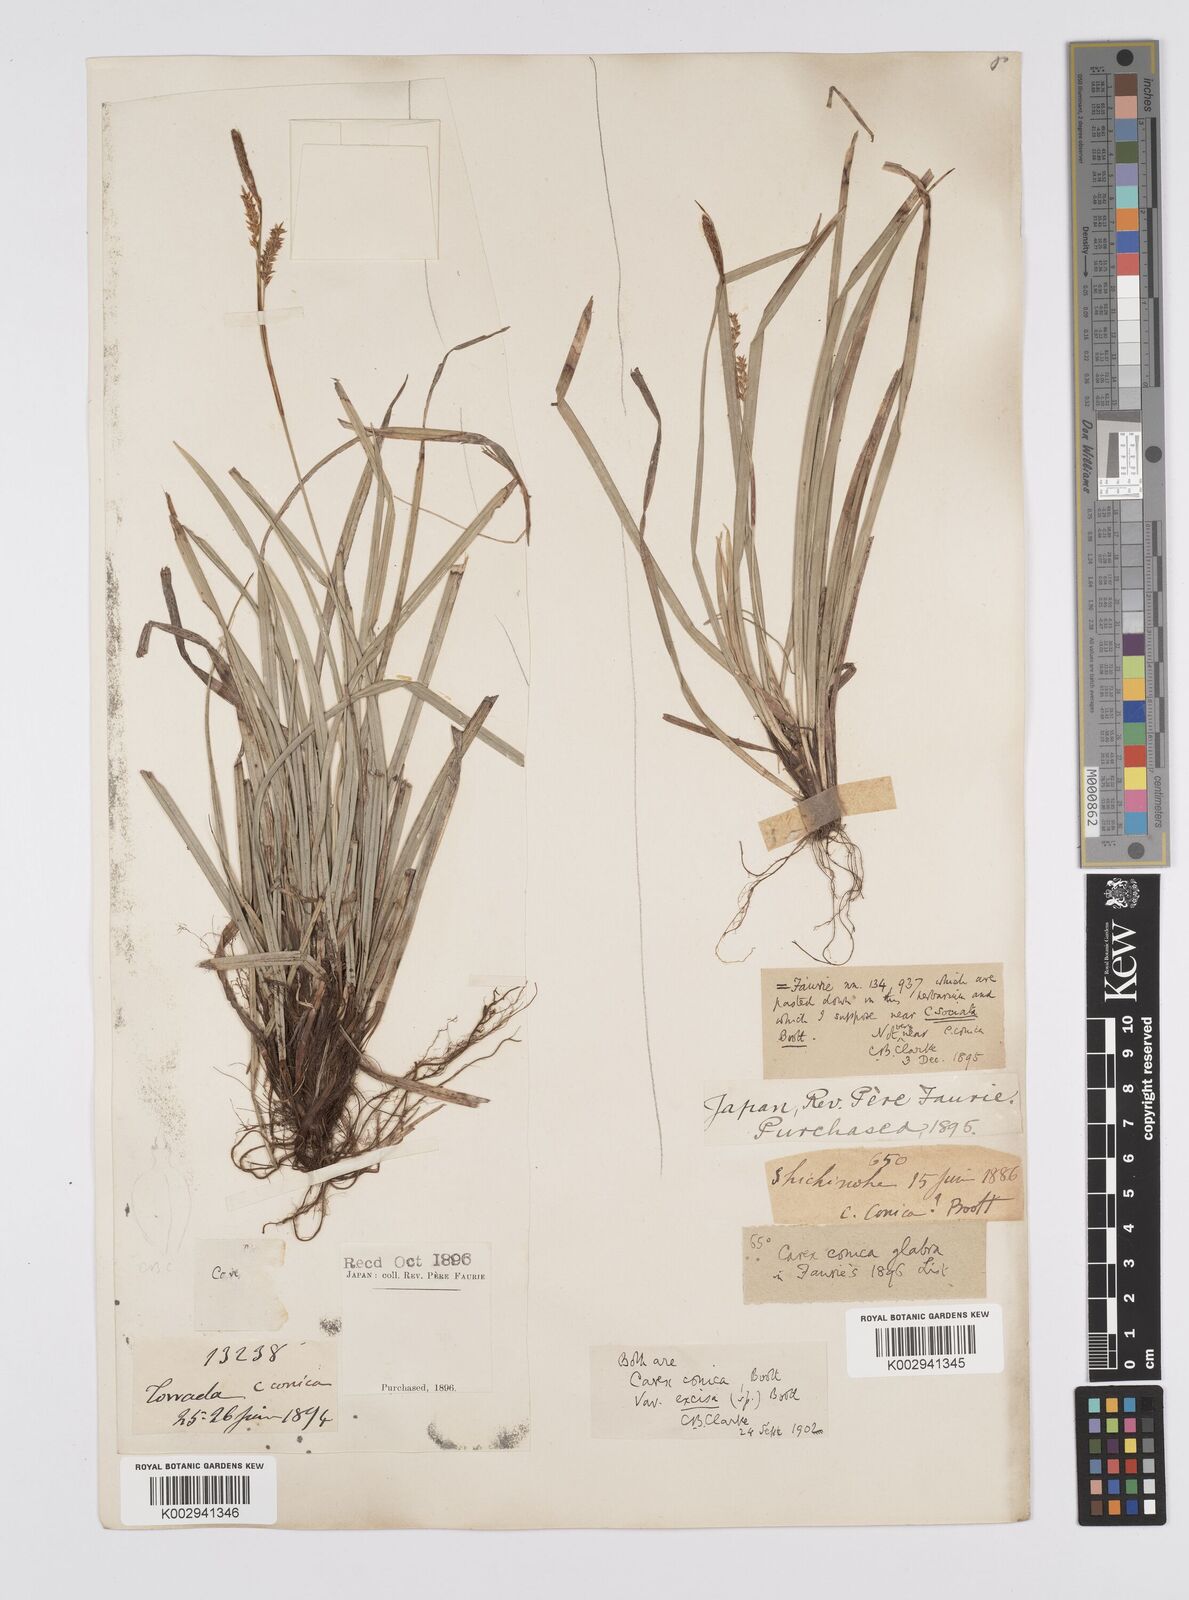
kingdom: Plantae
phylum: Tracheophyta
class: Liliopsida
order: Poales
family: Cyperaceae
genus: Carex
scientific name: Carex conica
